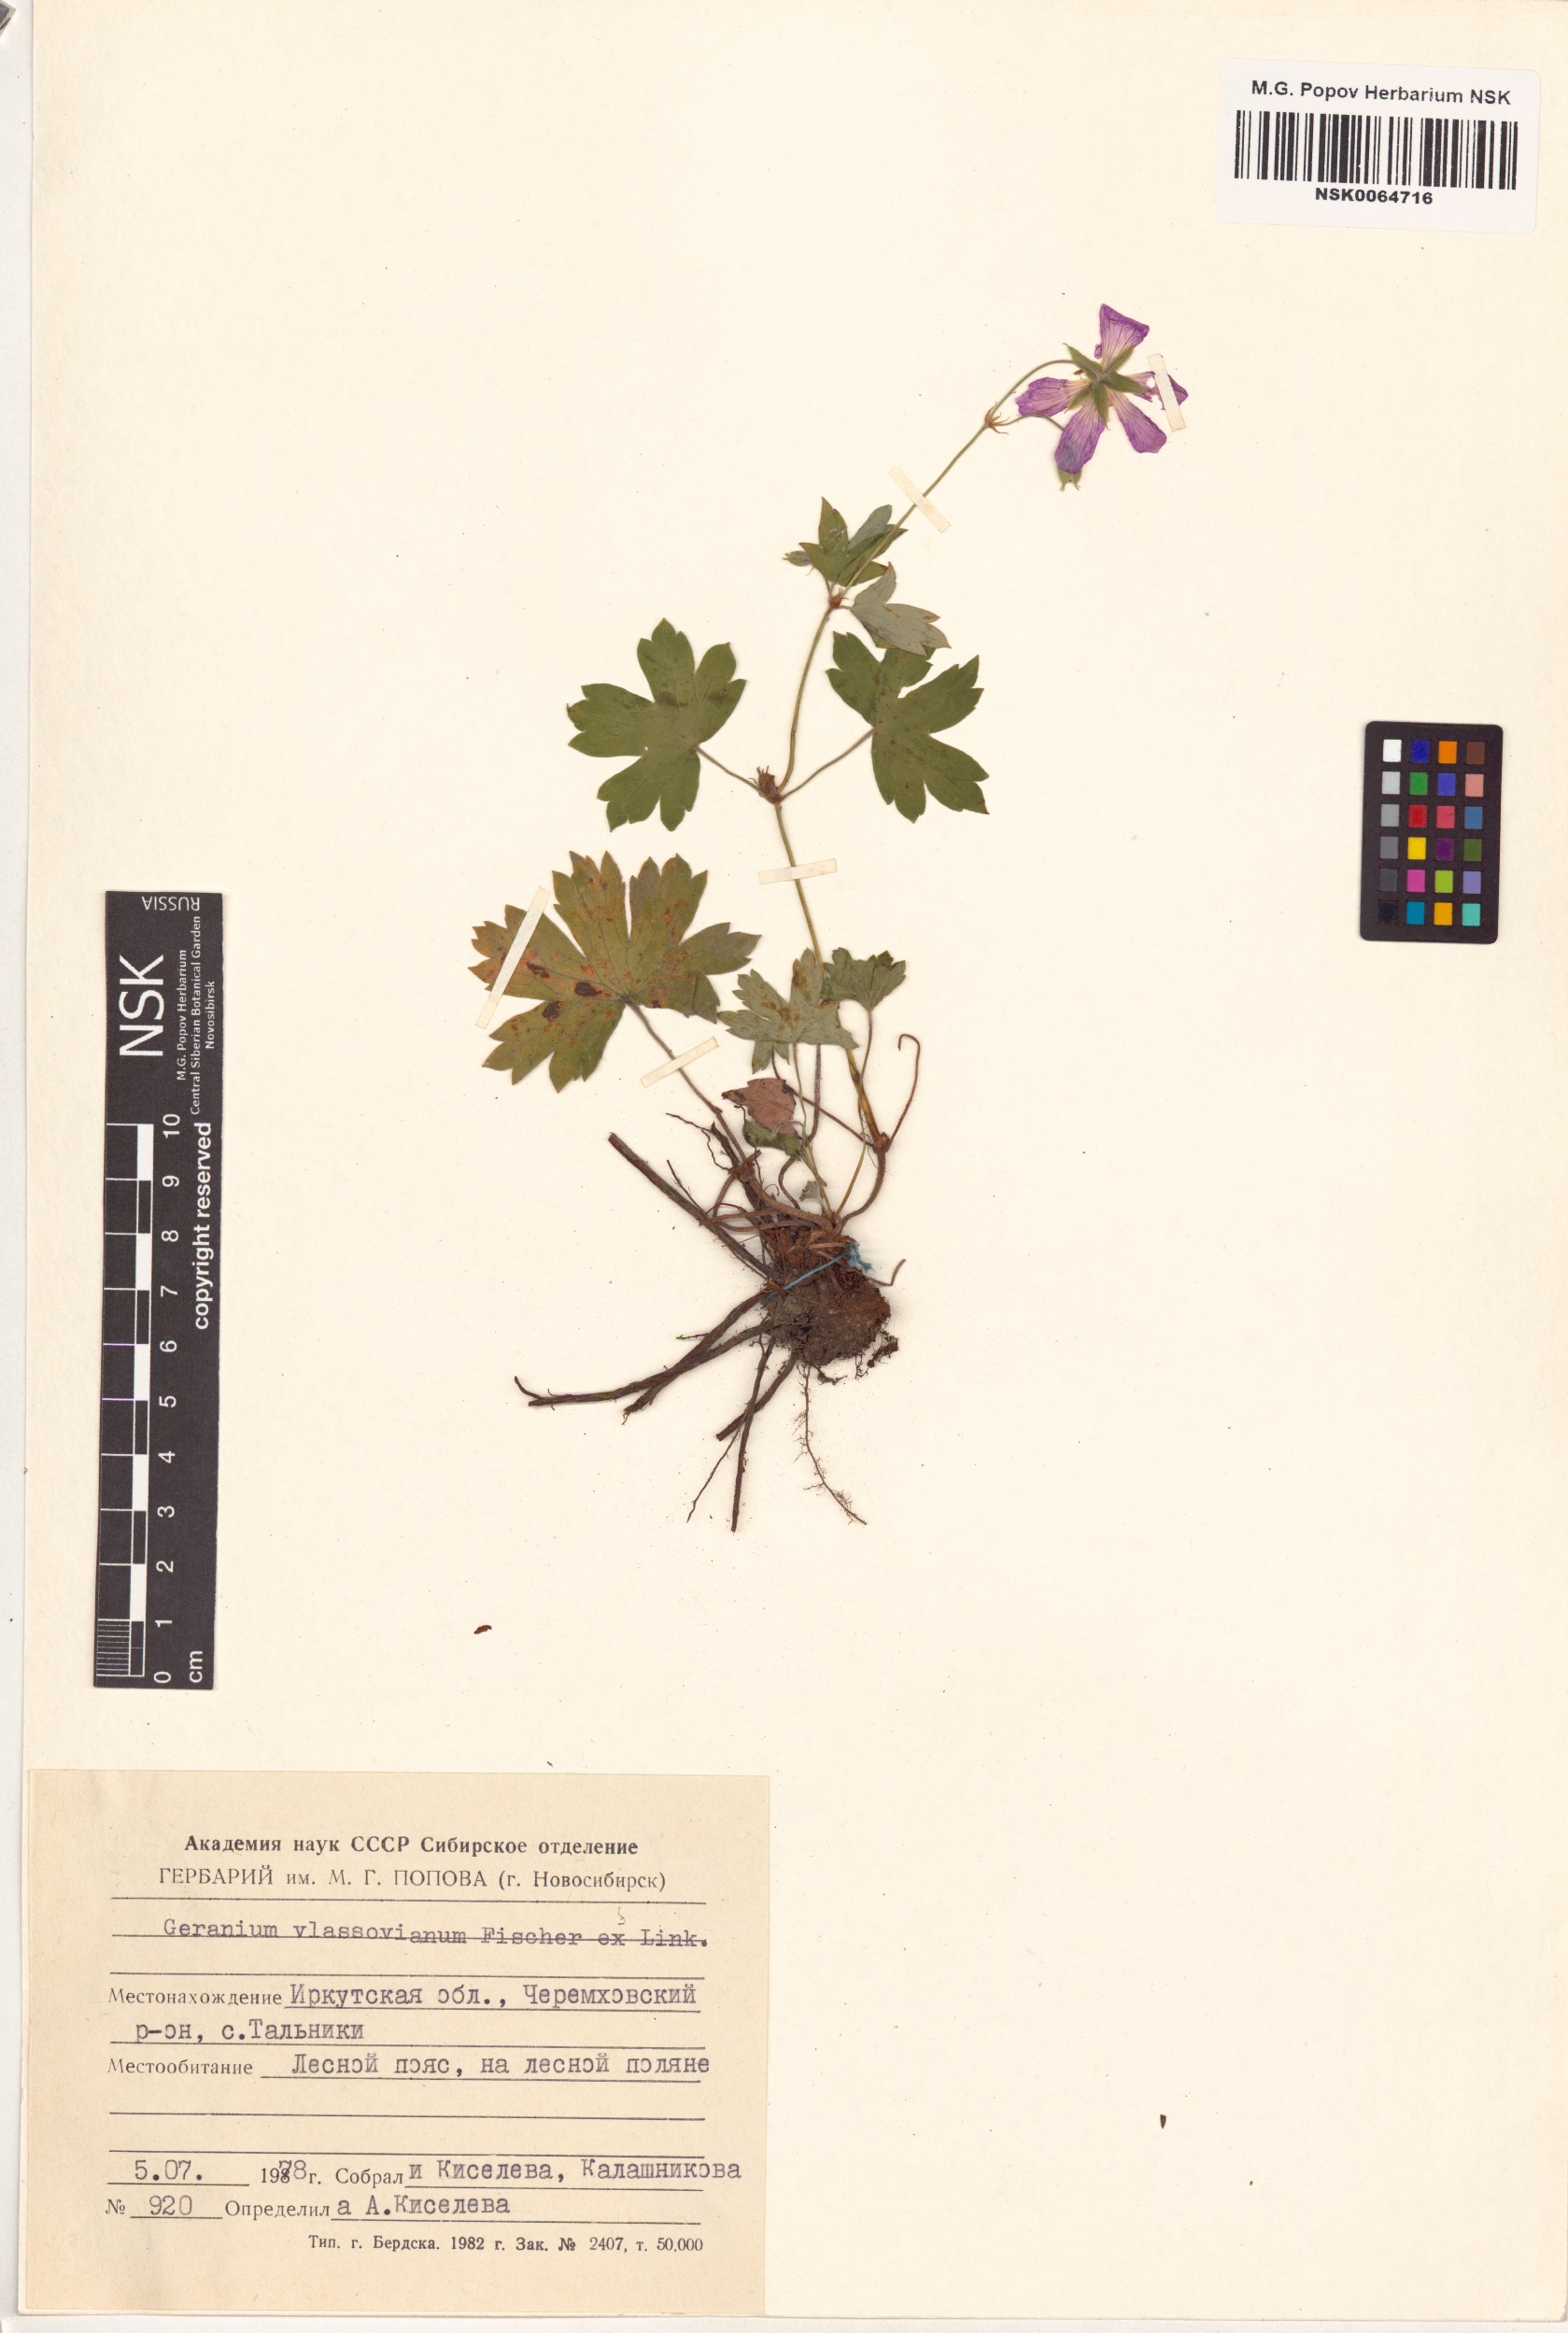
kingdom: Plantae
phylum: Tracheophyta
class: Magnoliopsida
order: Geraniales
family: Geraniaceae
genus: Geranium
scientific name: Geranium wlassovianum
